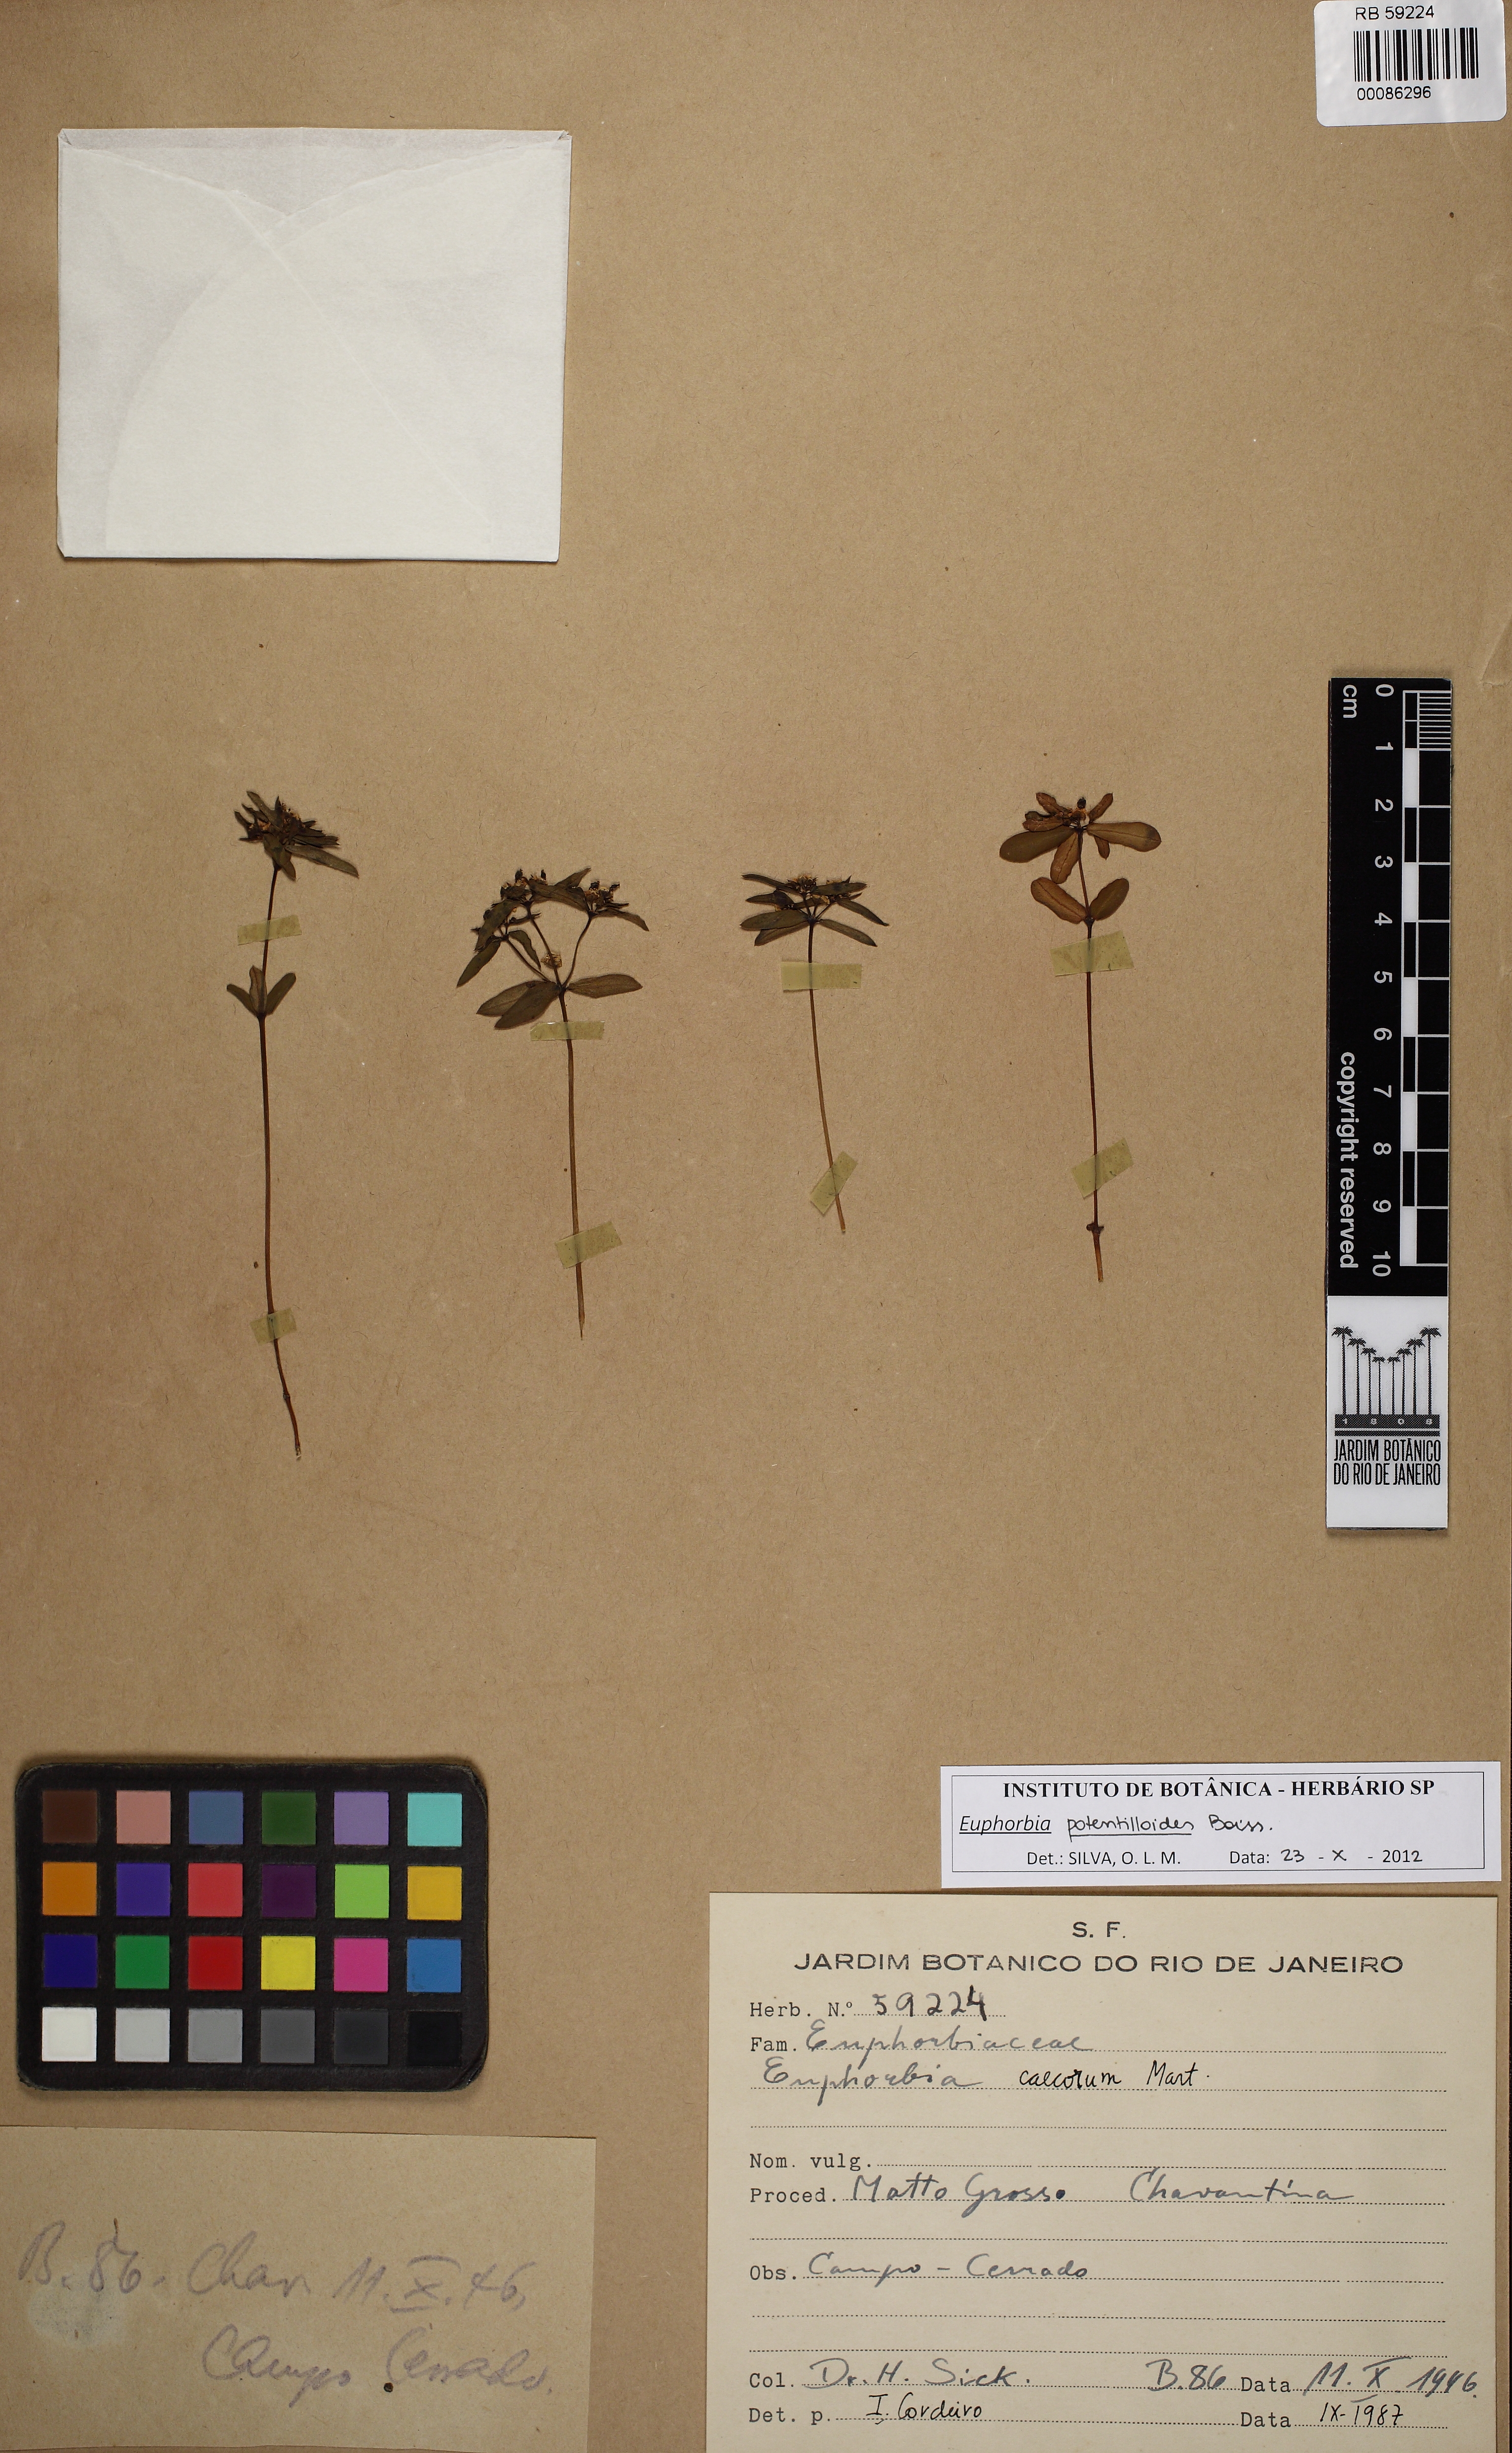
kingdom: Plantae
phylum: Tracheophyta
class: Magnoliopsida
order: Malpighiales
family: Euphorbiaceae
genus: Euphorbia
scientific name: Euphorbia potentilloides
